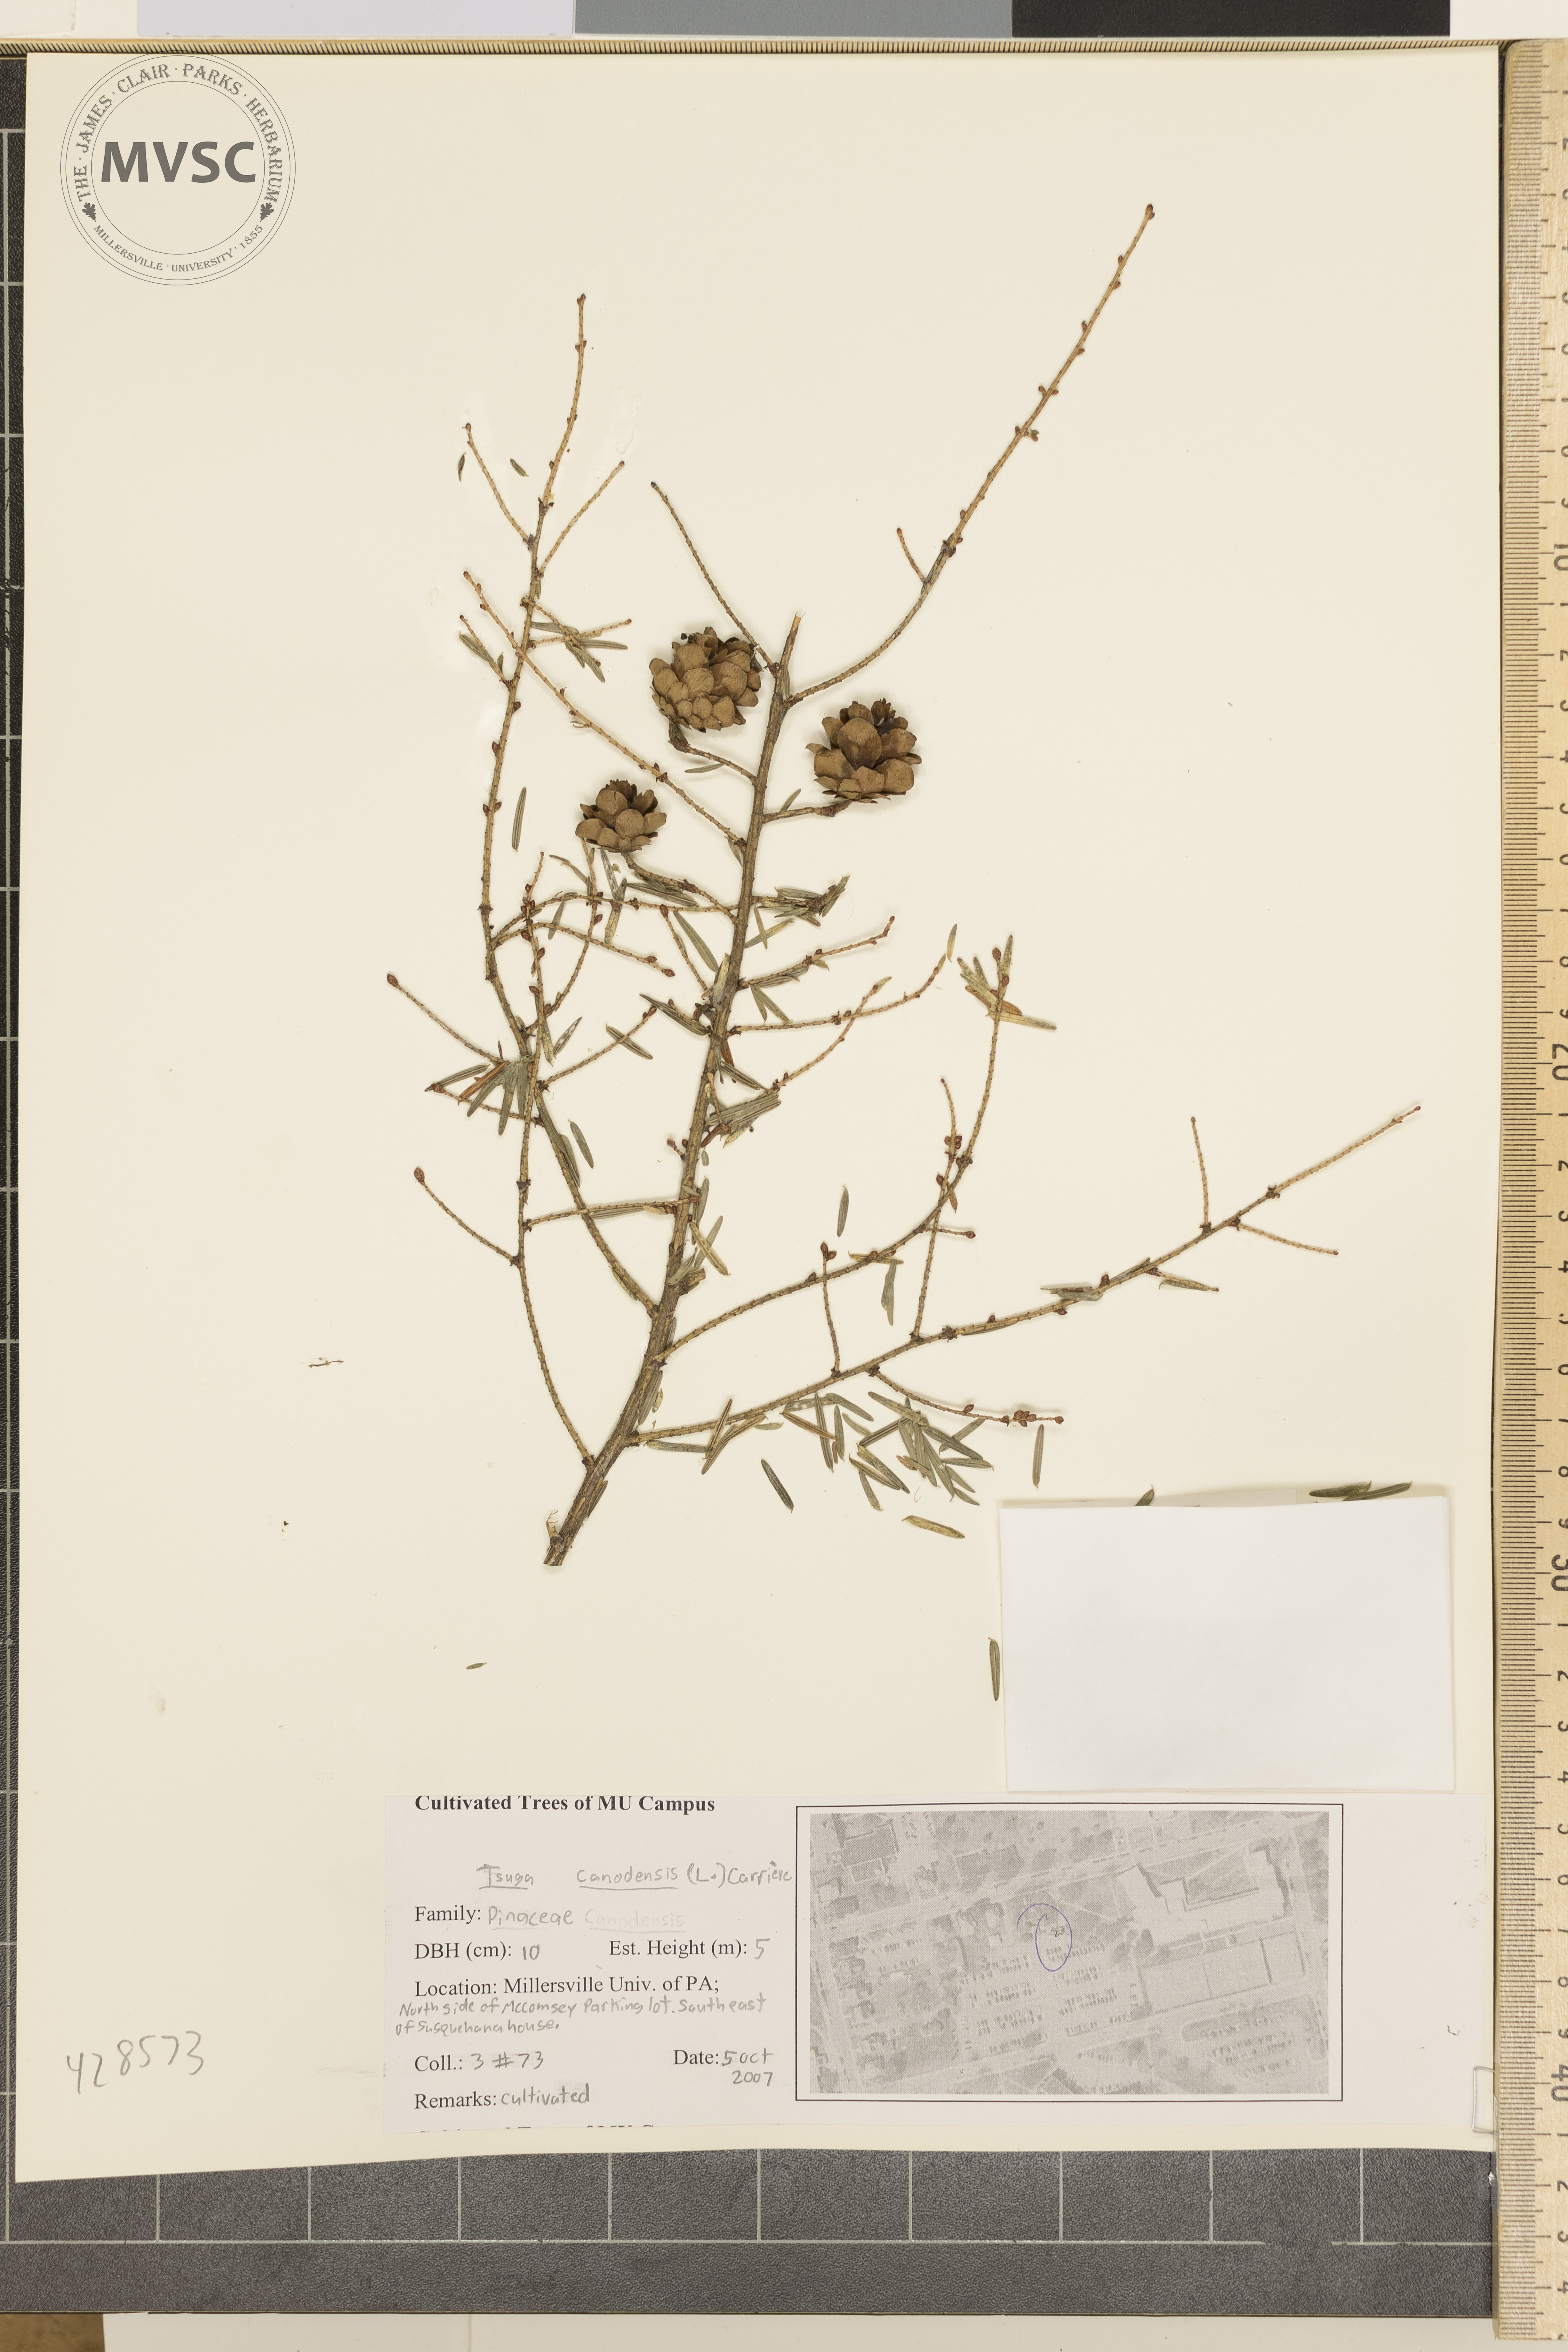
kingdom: Plantae
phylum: Tracheophyta
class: Pinopsida
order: Pinales
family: Pinaceae
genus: Tsuga
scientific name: Tsuga canadensis
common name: Canadian Hemlock
